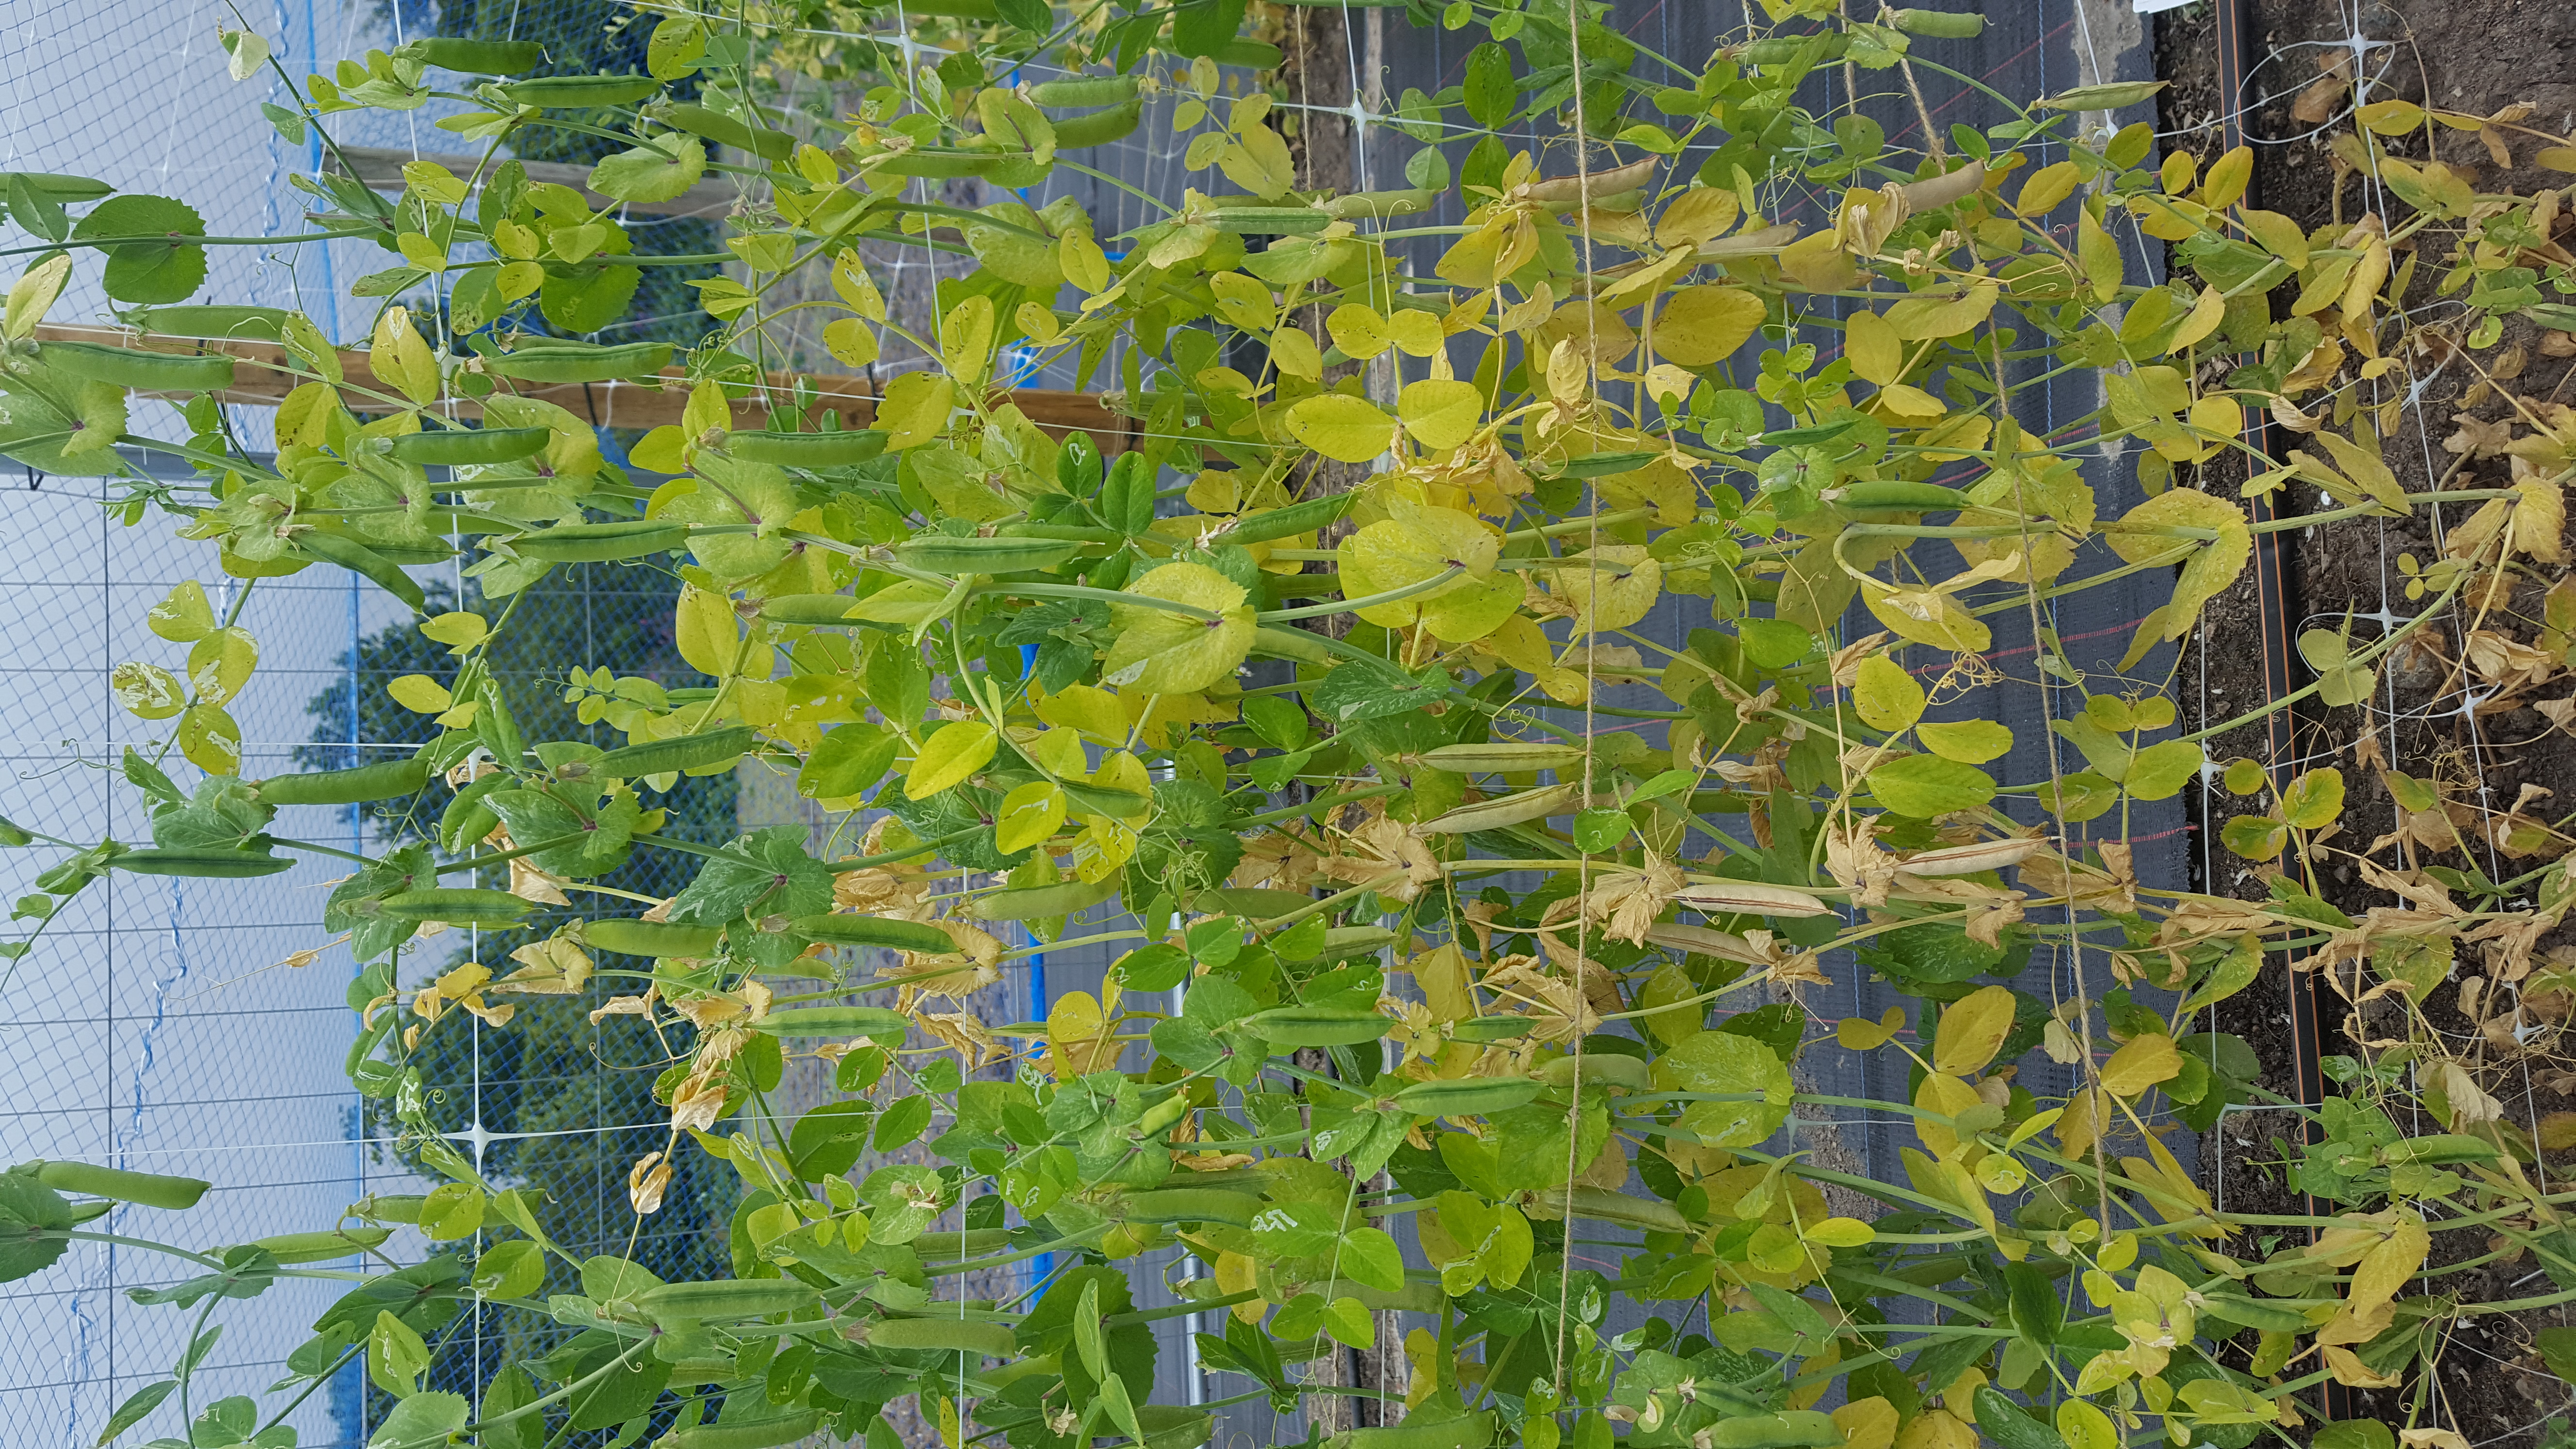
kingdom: Plantae
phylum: Tracheophyta
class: Magnoliopsida
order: Fabales
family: Fabaceae
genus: Lathyrus
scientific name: Lathyrus oleraceus
